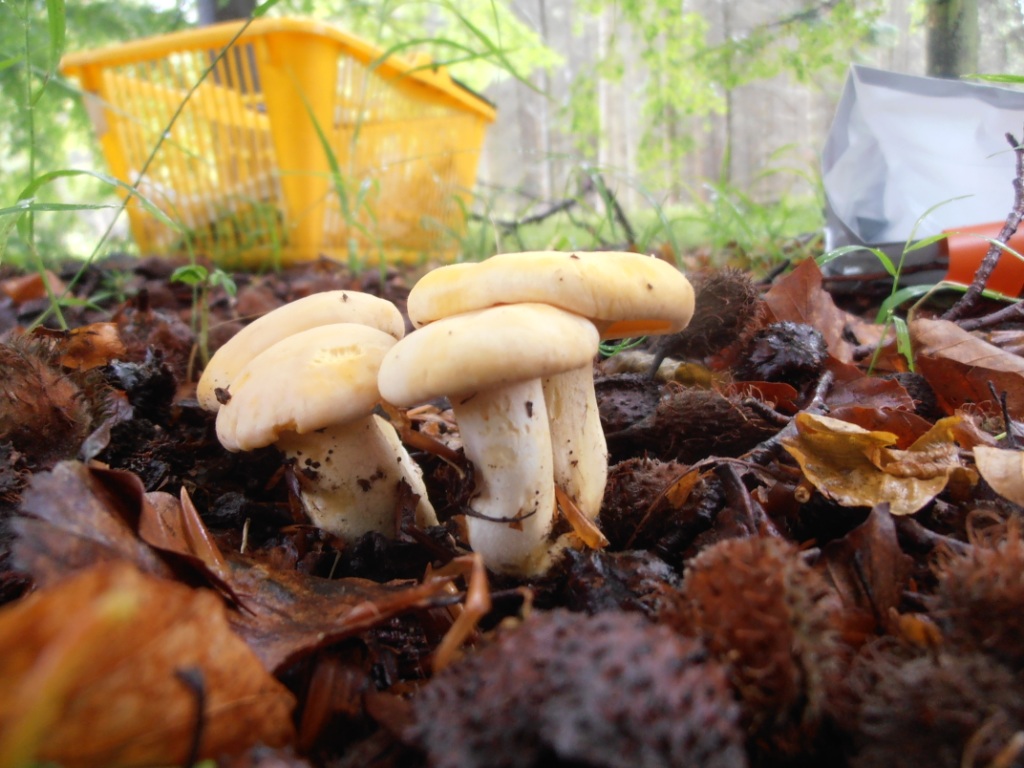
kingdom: Fungi
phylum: Basidiomycota
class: Agaricomycetes
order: Cantharellales
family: Hydnaceae
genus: Cantharellus
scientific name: Cantharellus pallens
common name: bleg kantarel
